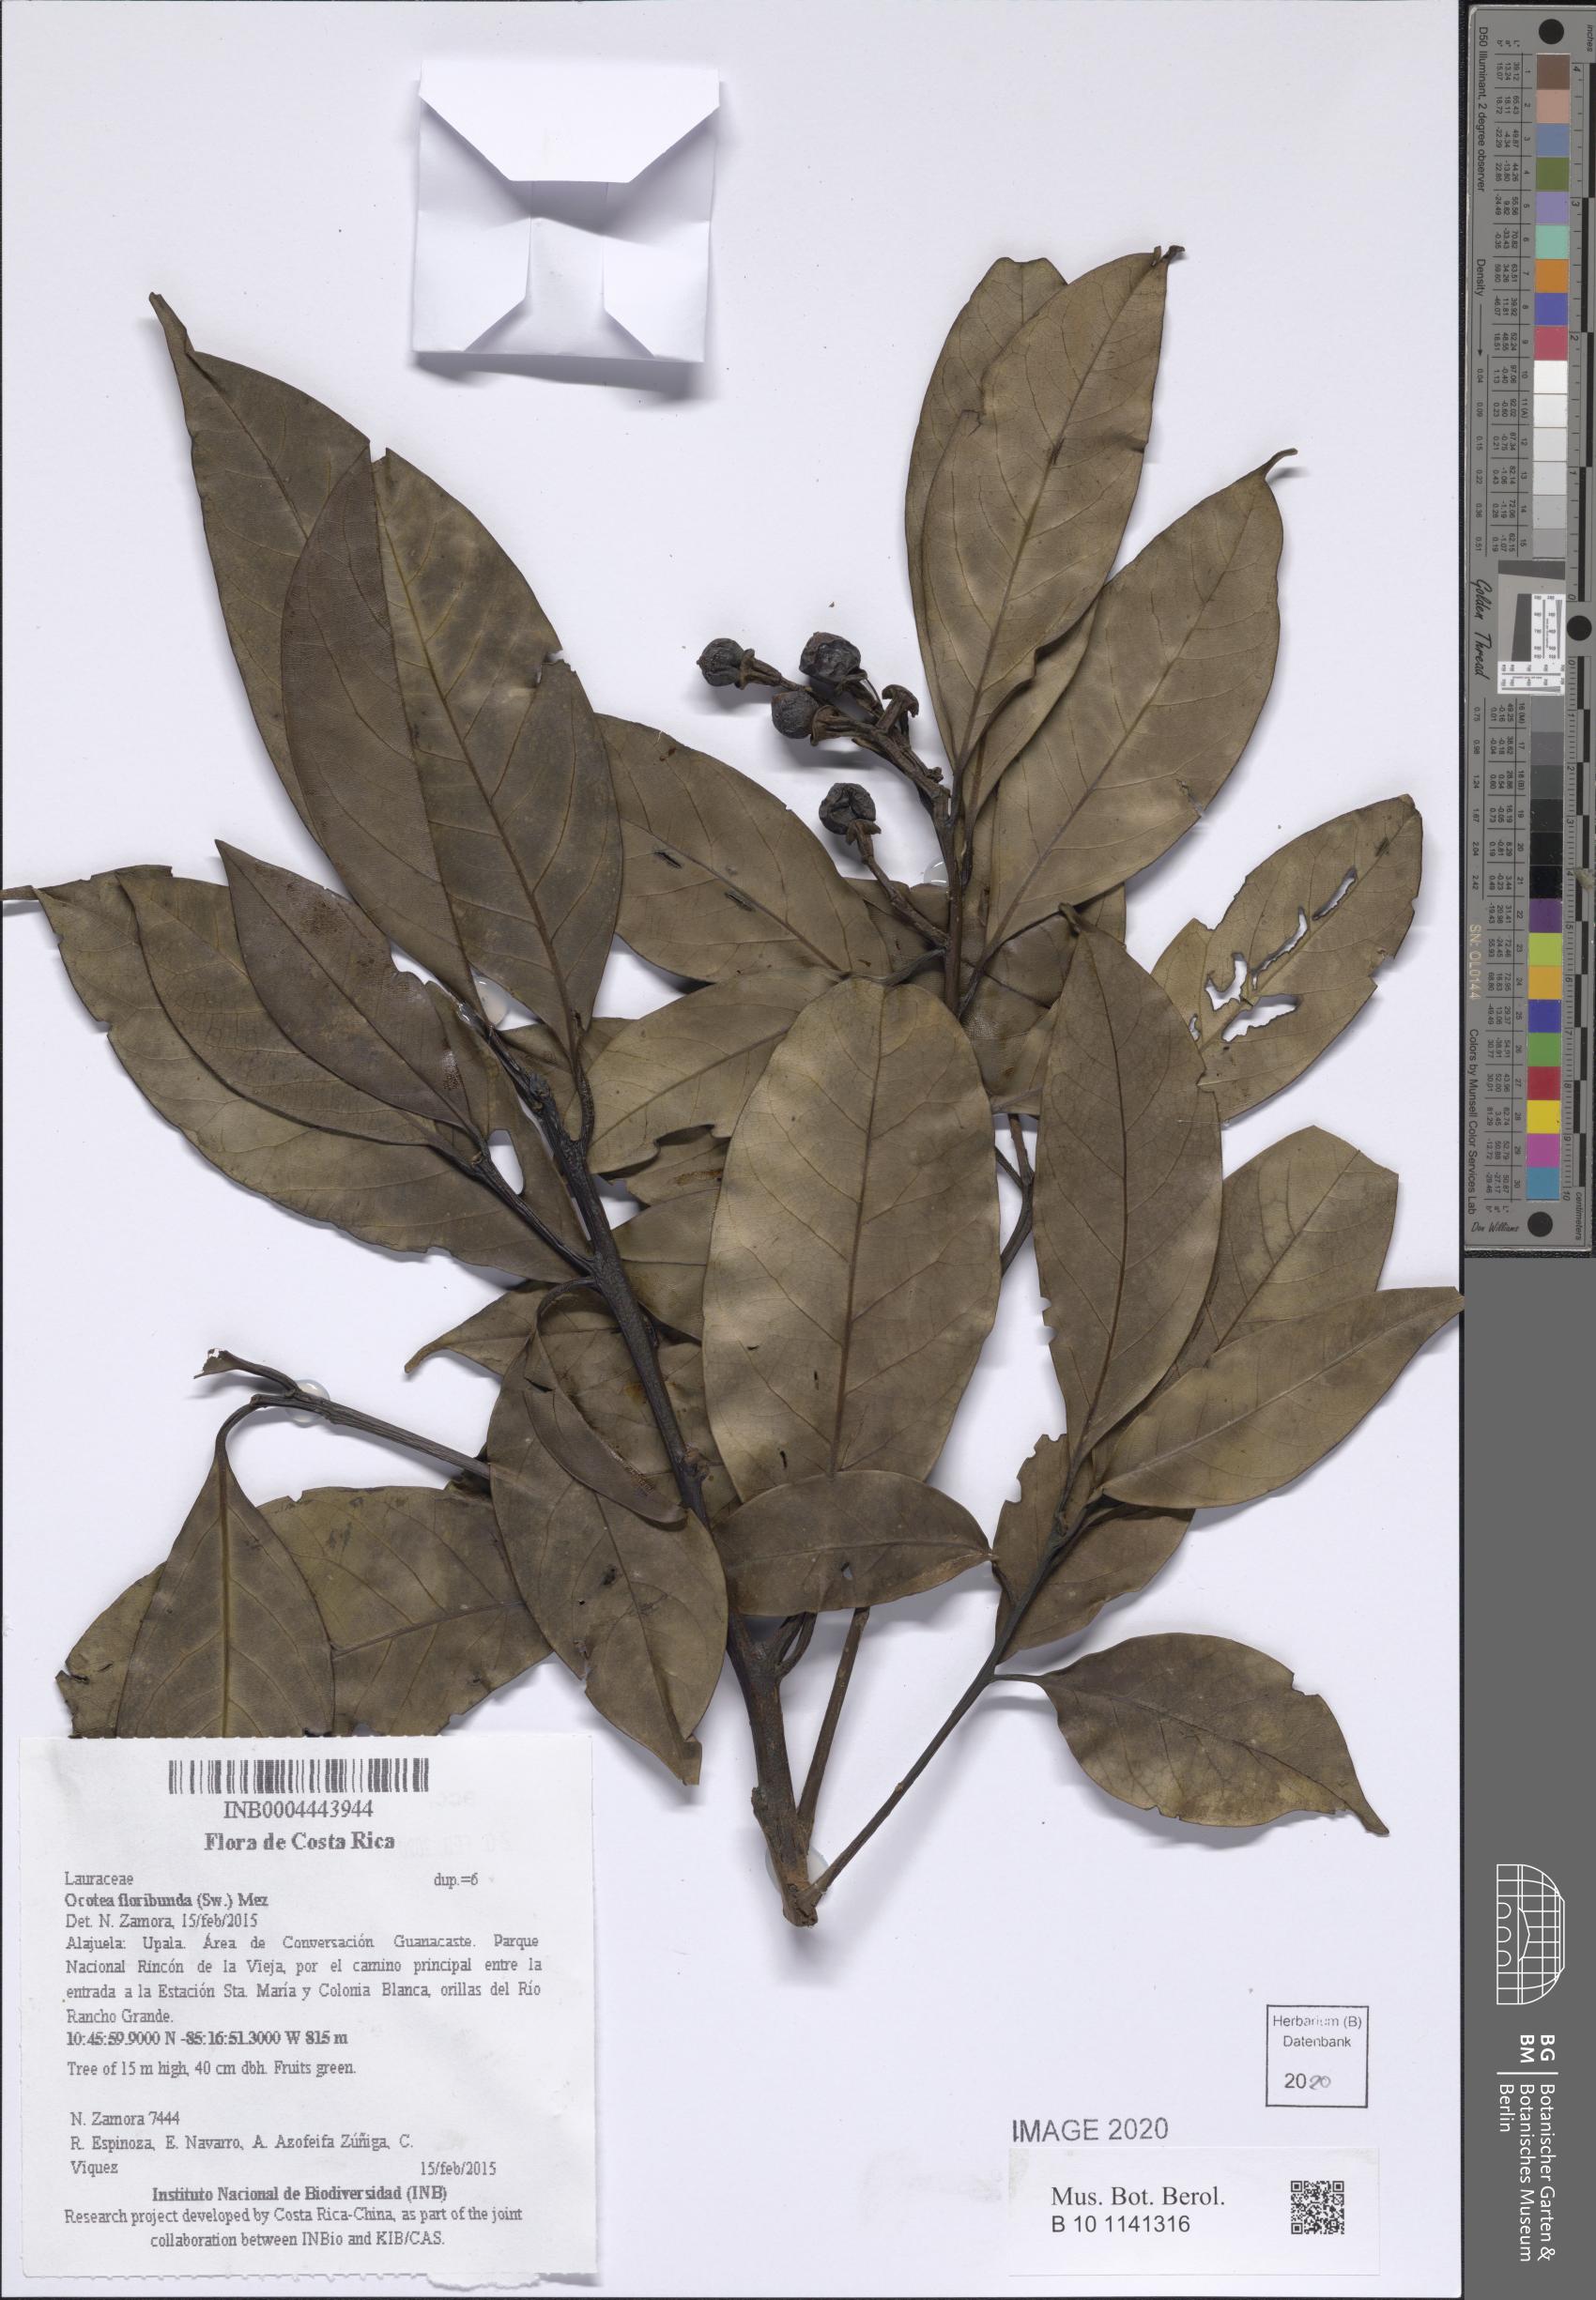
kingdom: Plantae
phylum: Tracheophyta
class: Magnoliopsida
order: Laurales
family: Lauraceae
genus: Ocotea
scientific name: Ocotea floribunda
